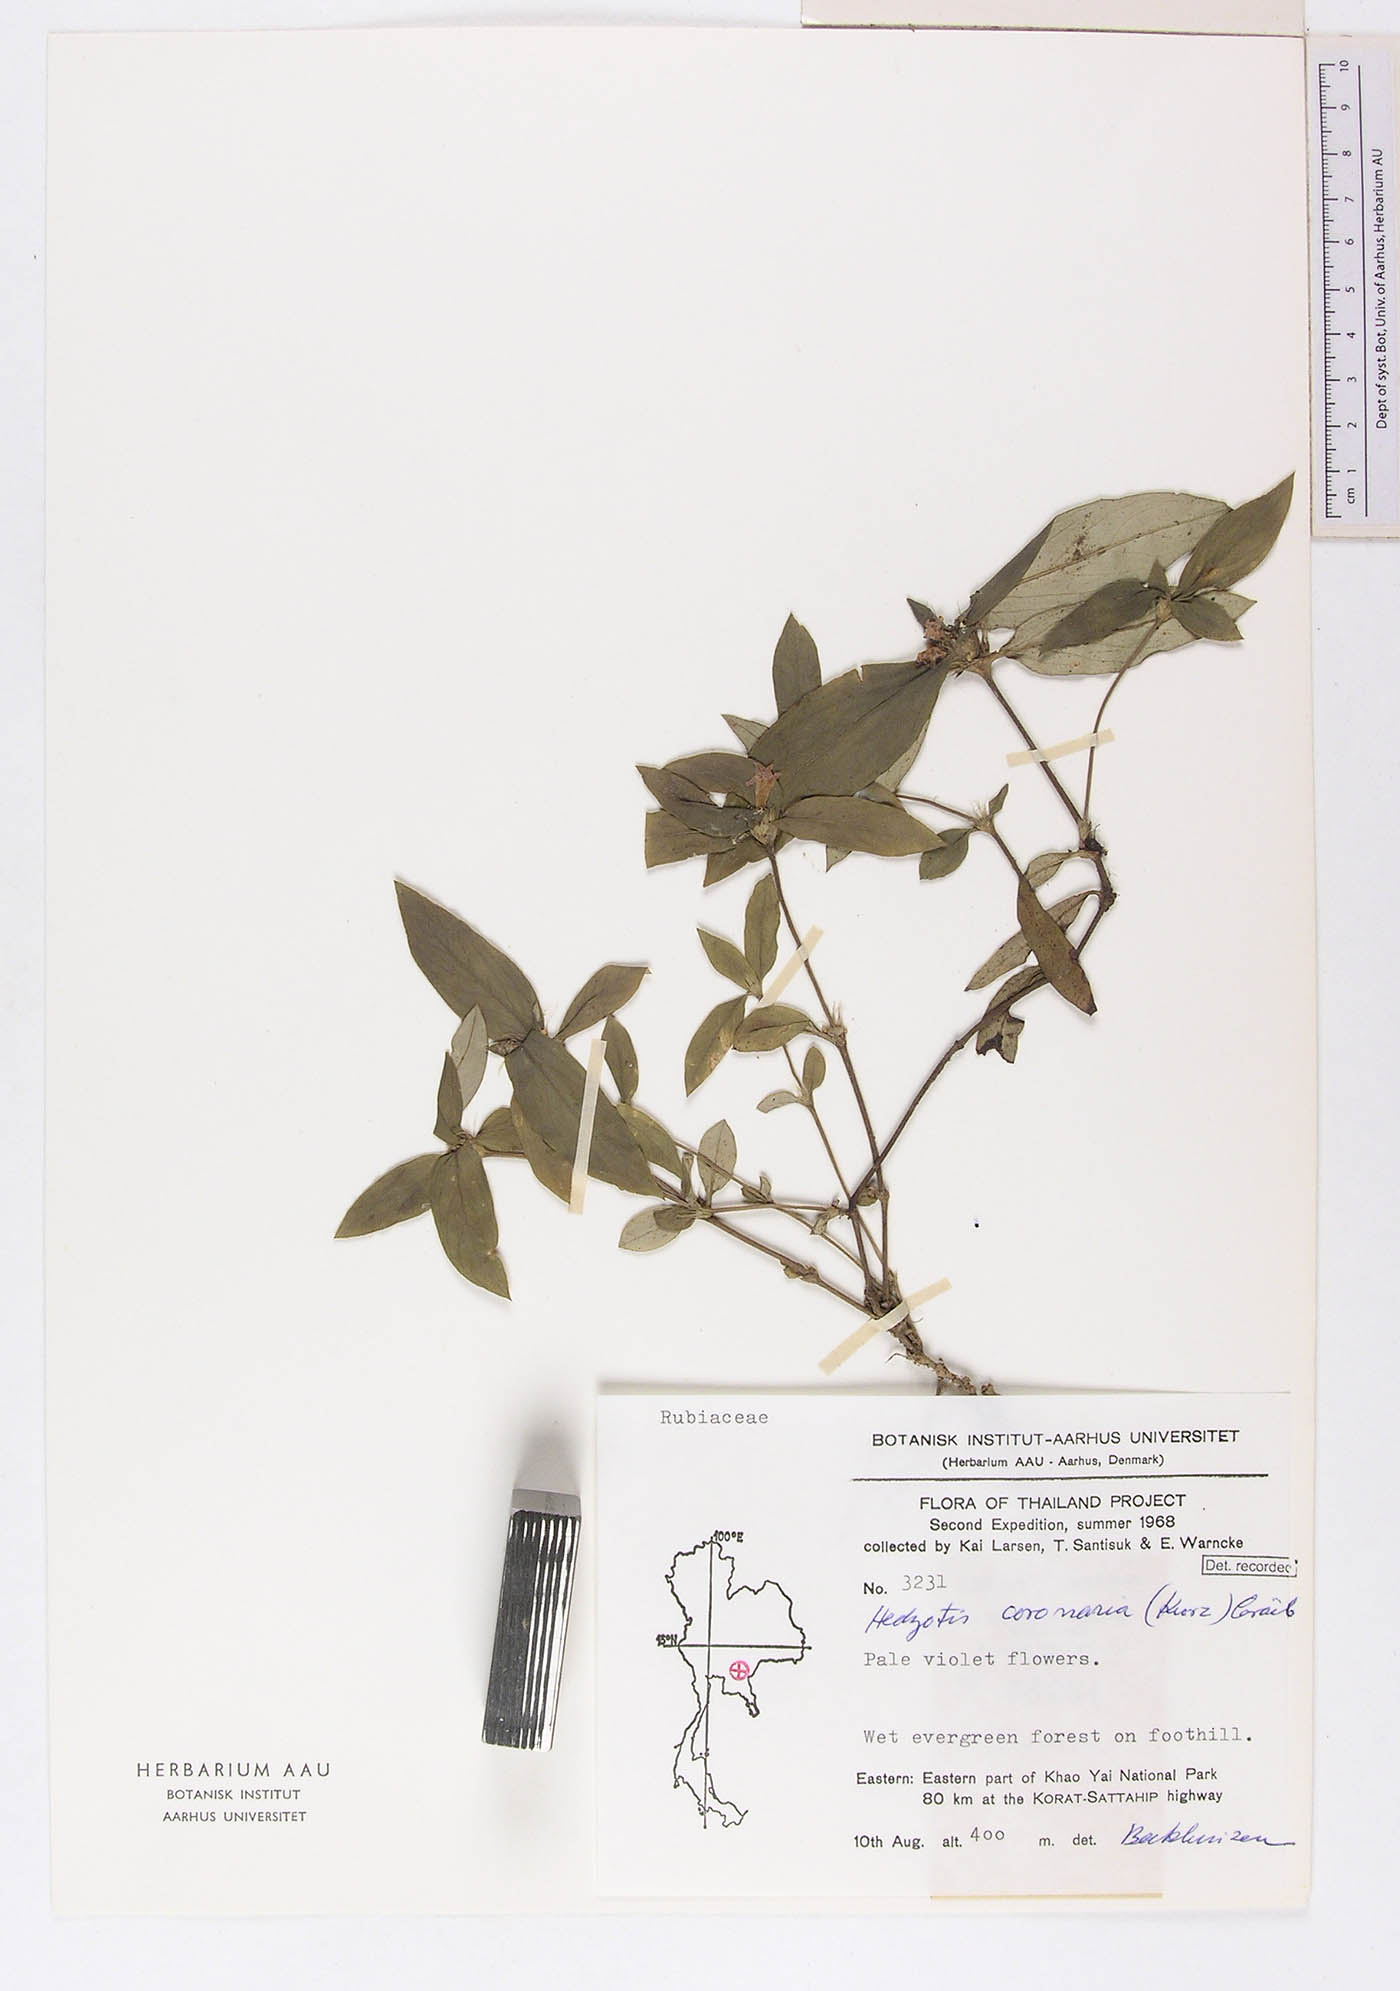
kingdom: Plantae
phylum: Tracheophyta
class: Magnoliopsida
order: Gentianales
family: Rubiaceae
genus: Involucrella
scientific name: Involucrella coronaria
